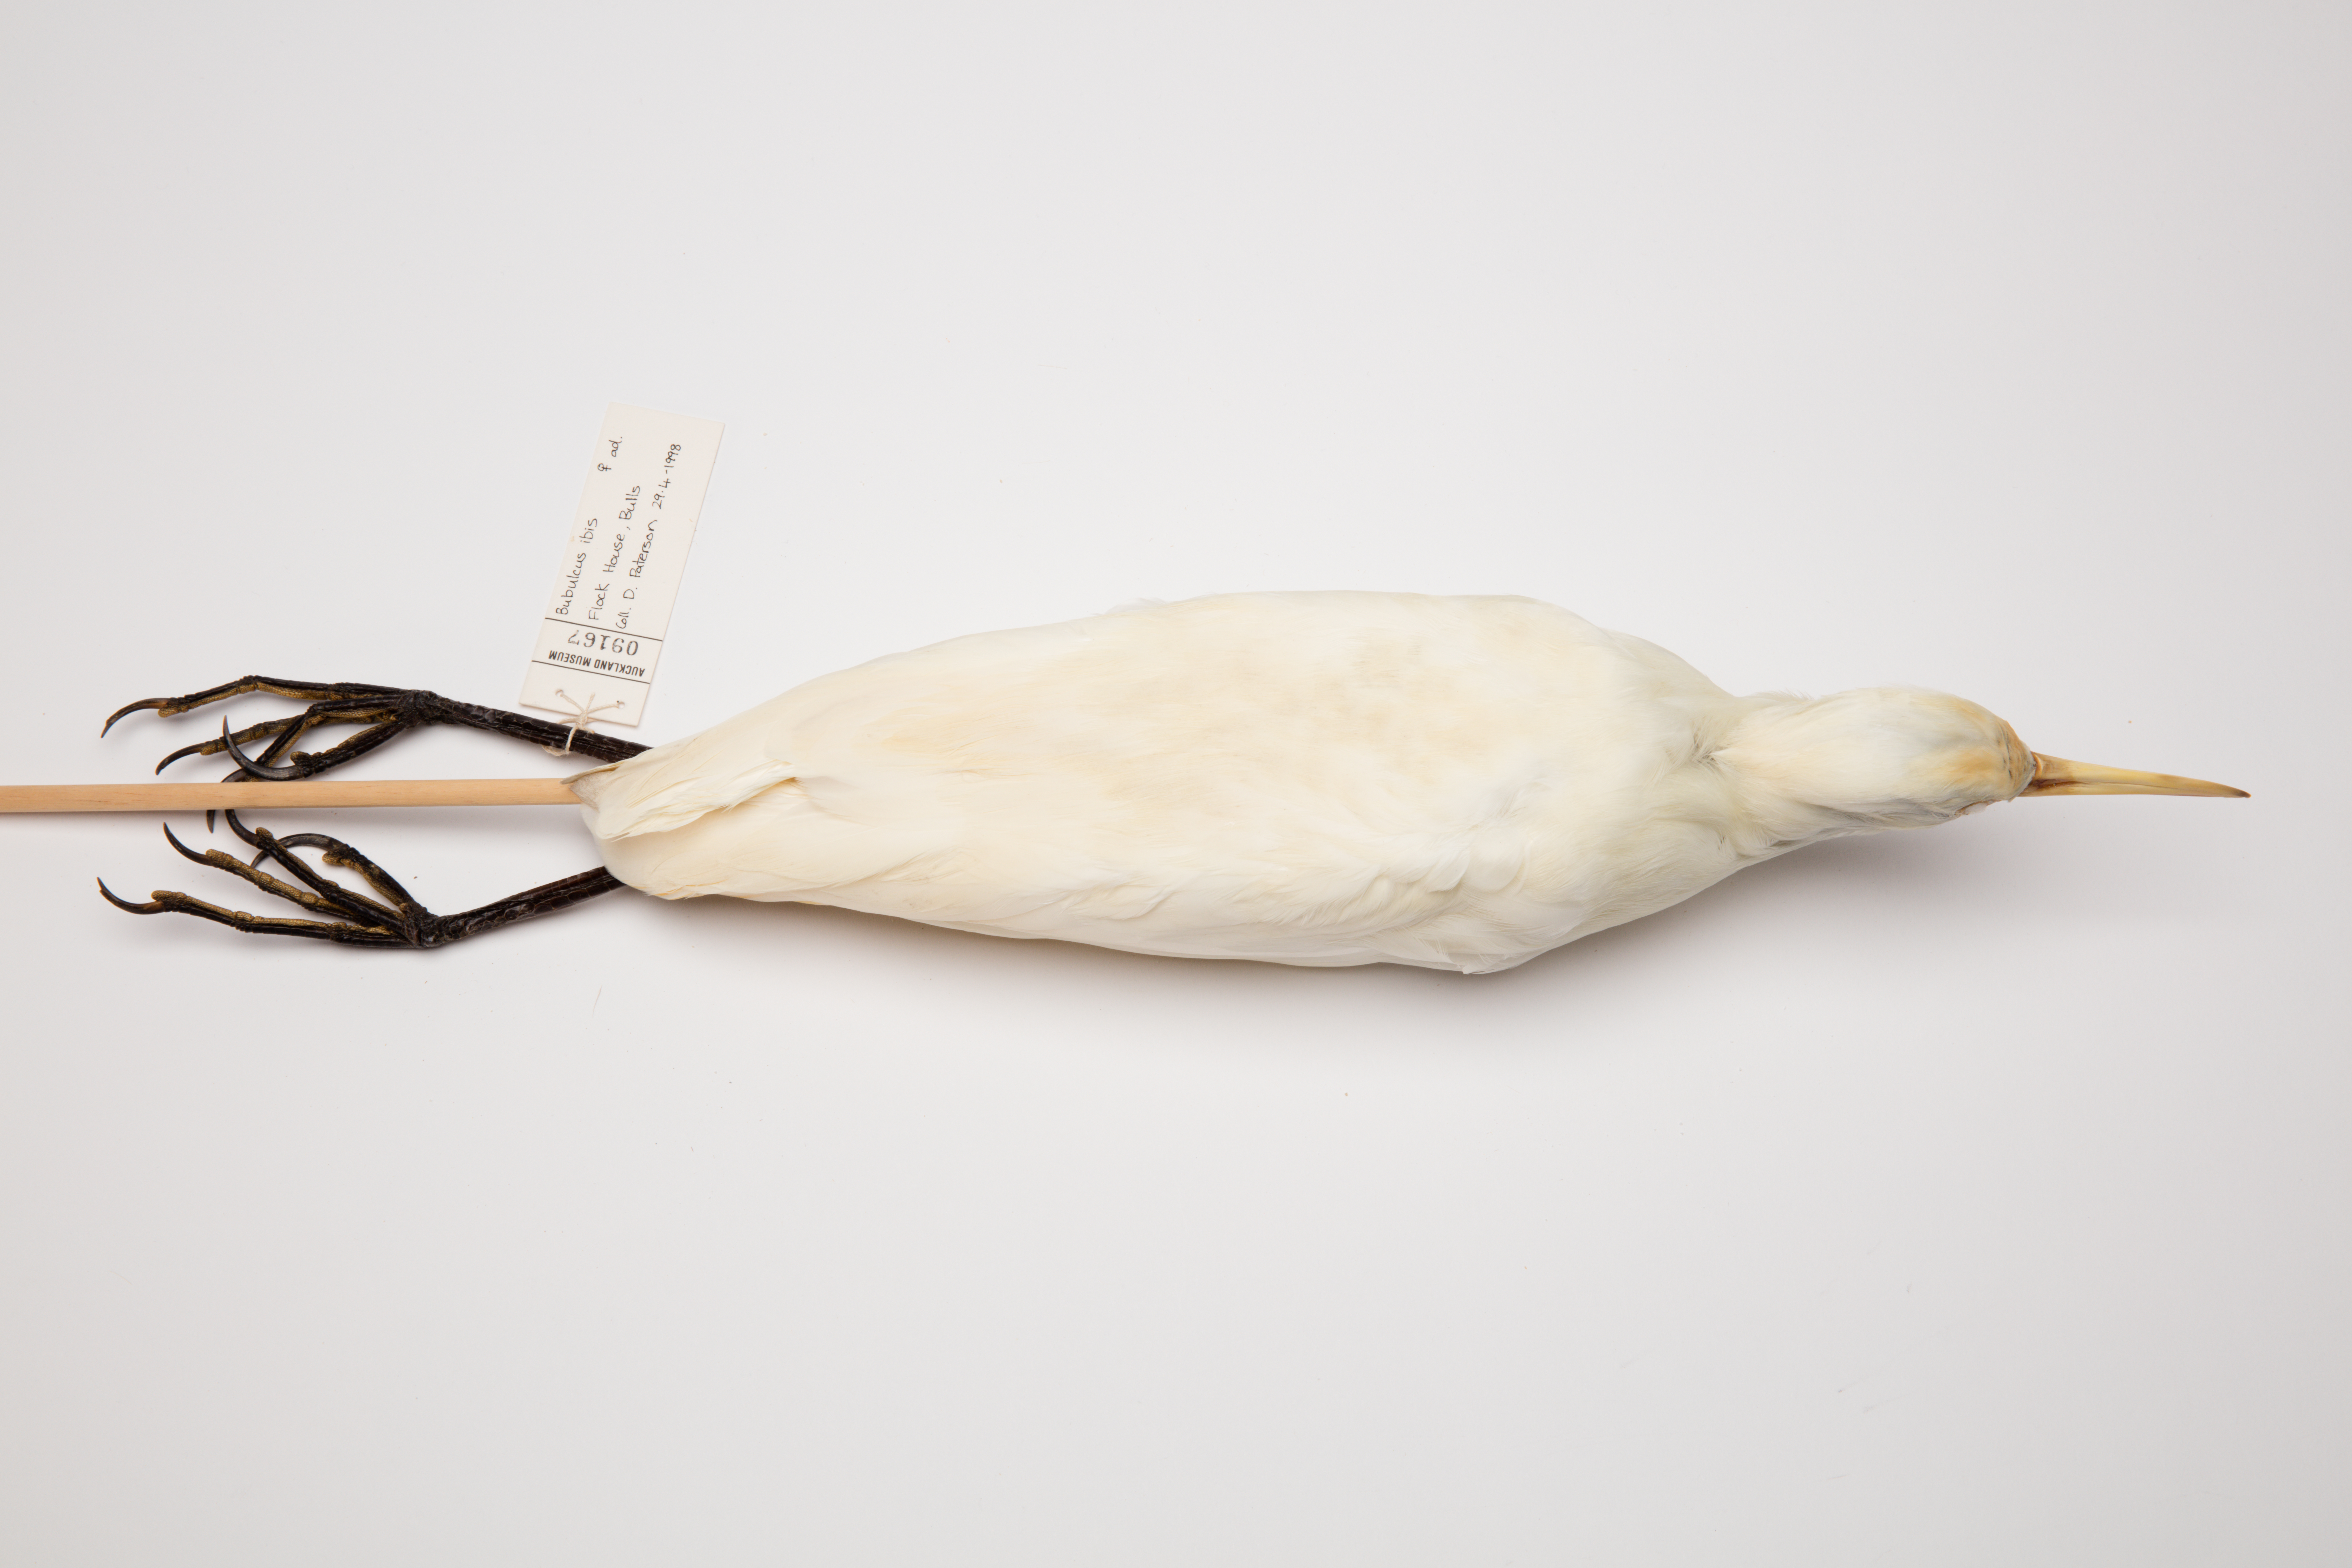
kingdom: Animalia
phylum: Chordata
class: Aves
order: Pelecaniformes
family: Ardeidae
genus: Bubulcus
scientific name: Bubulcus
